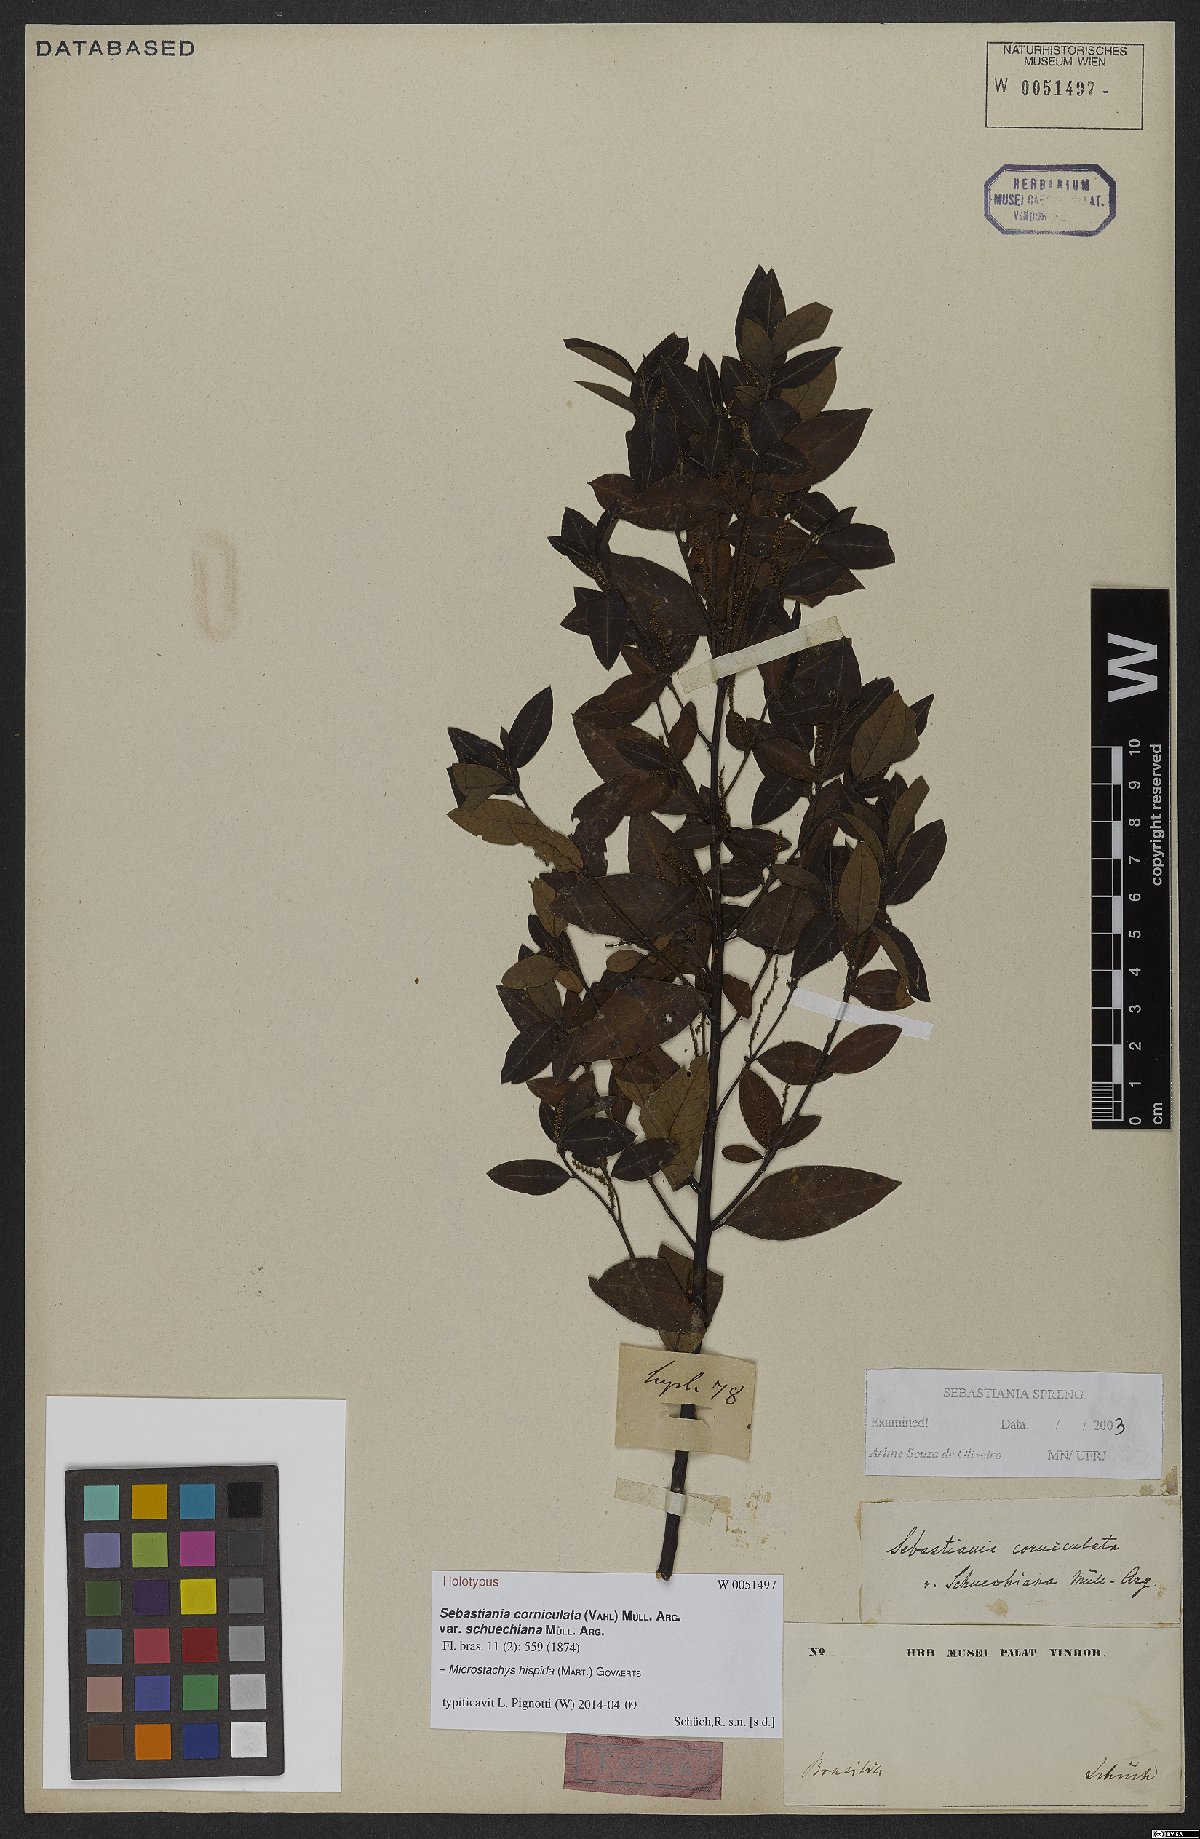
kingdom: Plantae
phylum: Tracheophyta
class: Magnoliopsida
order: Malpighiales
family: Euphorbiaceae
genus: Microstachys
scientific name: Microstachys hispida
